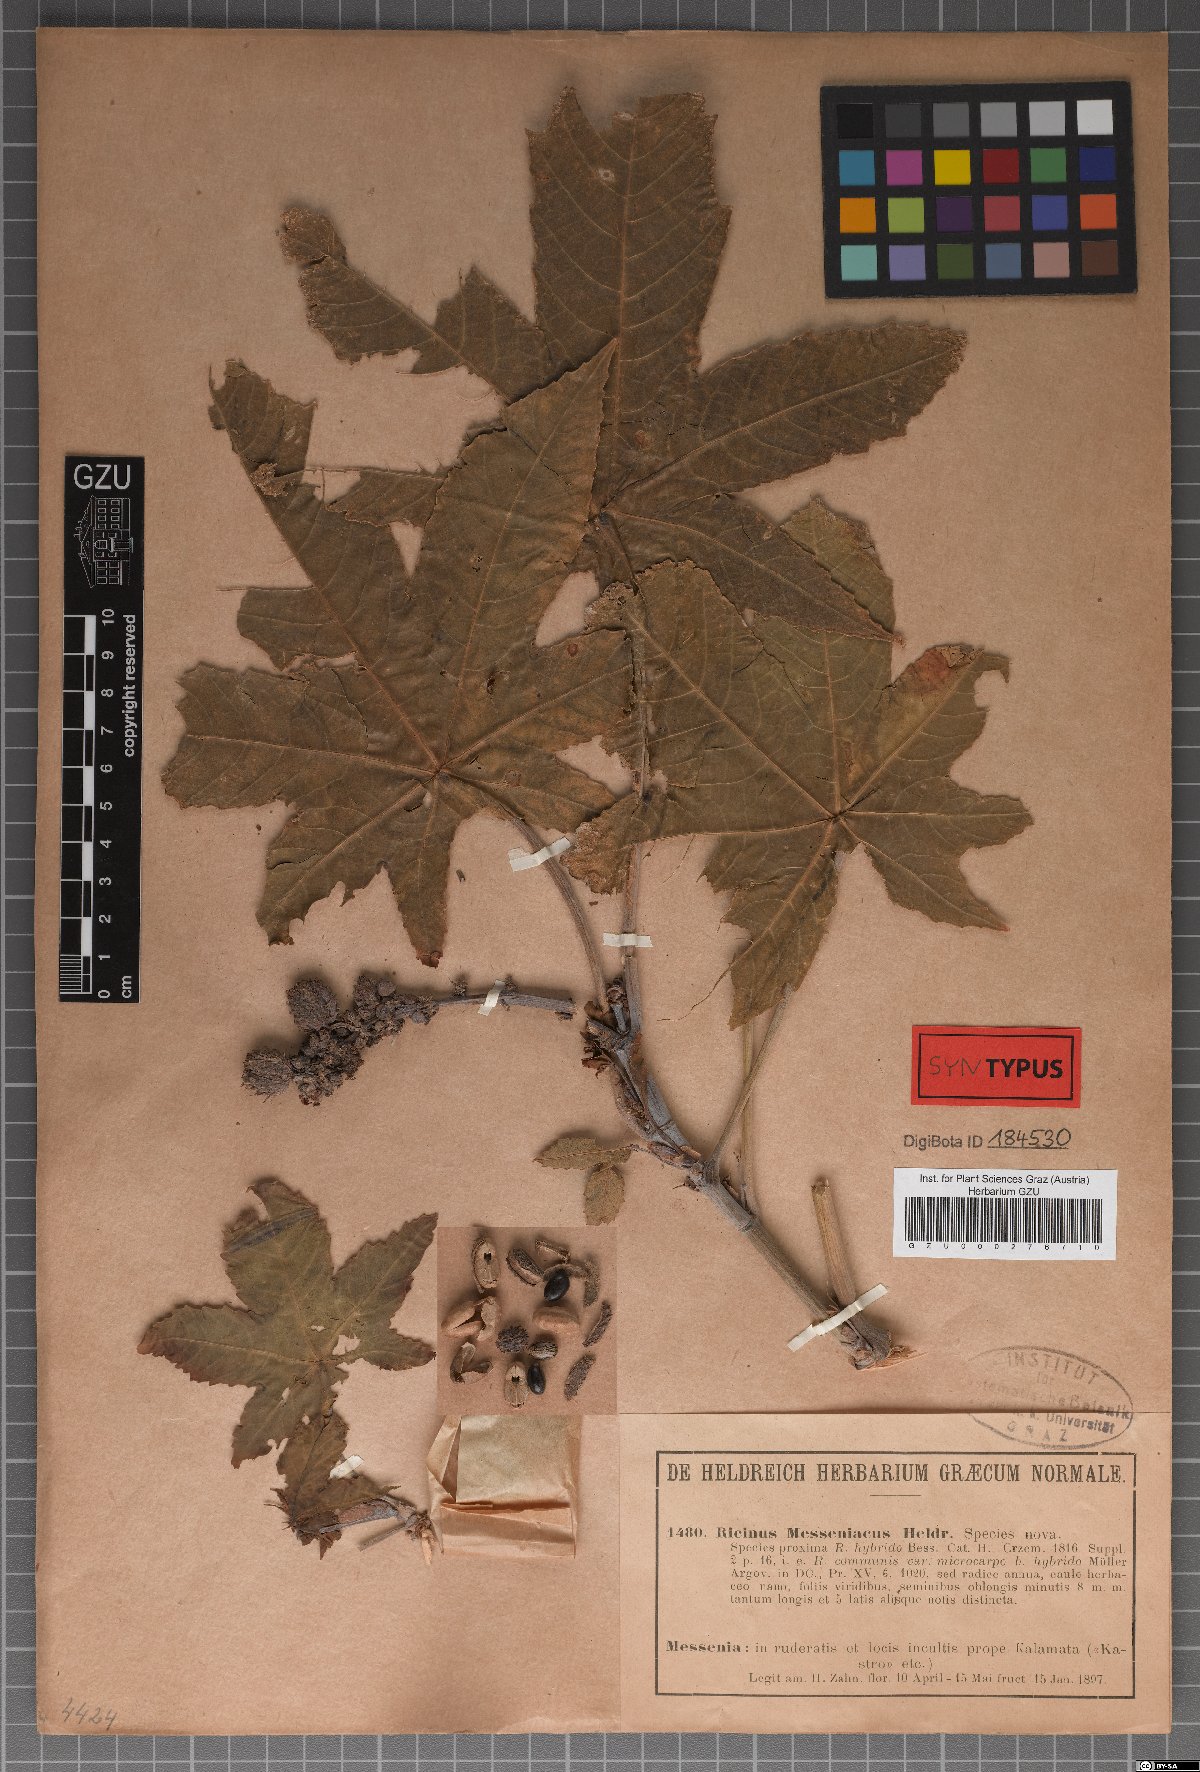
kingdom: Plantae
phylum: Tracheophyta
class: Magnoliopsida
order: Malpighiales
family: Euphorbiaceae
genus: Ricinus
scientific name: Ricinus communis
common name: Castor-oil-plant
